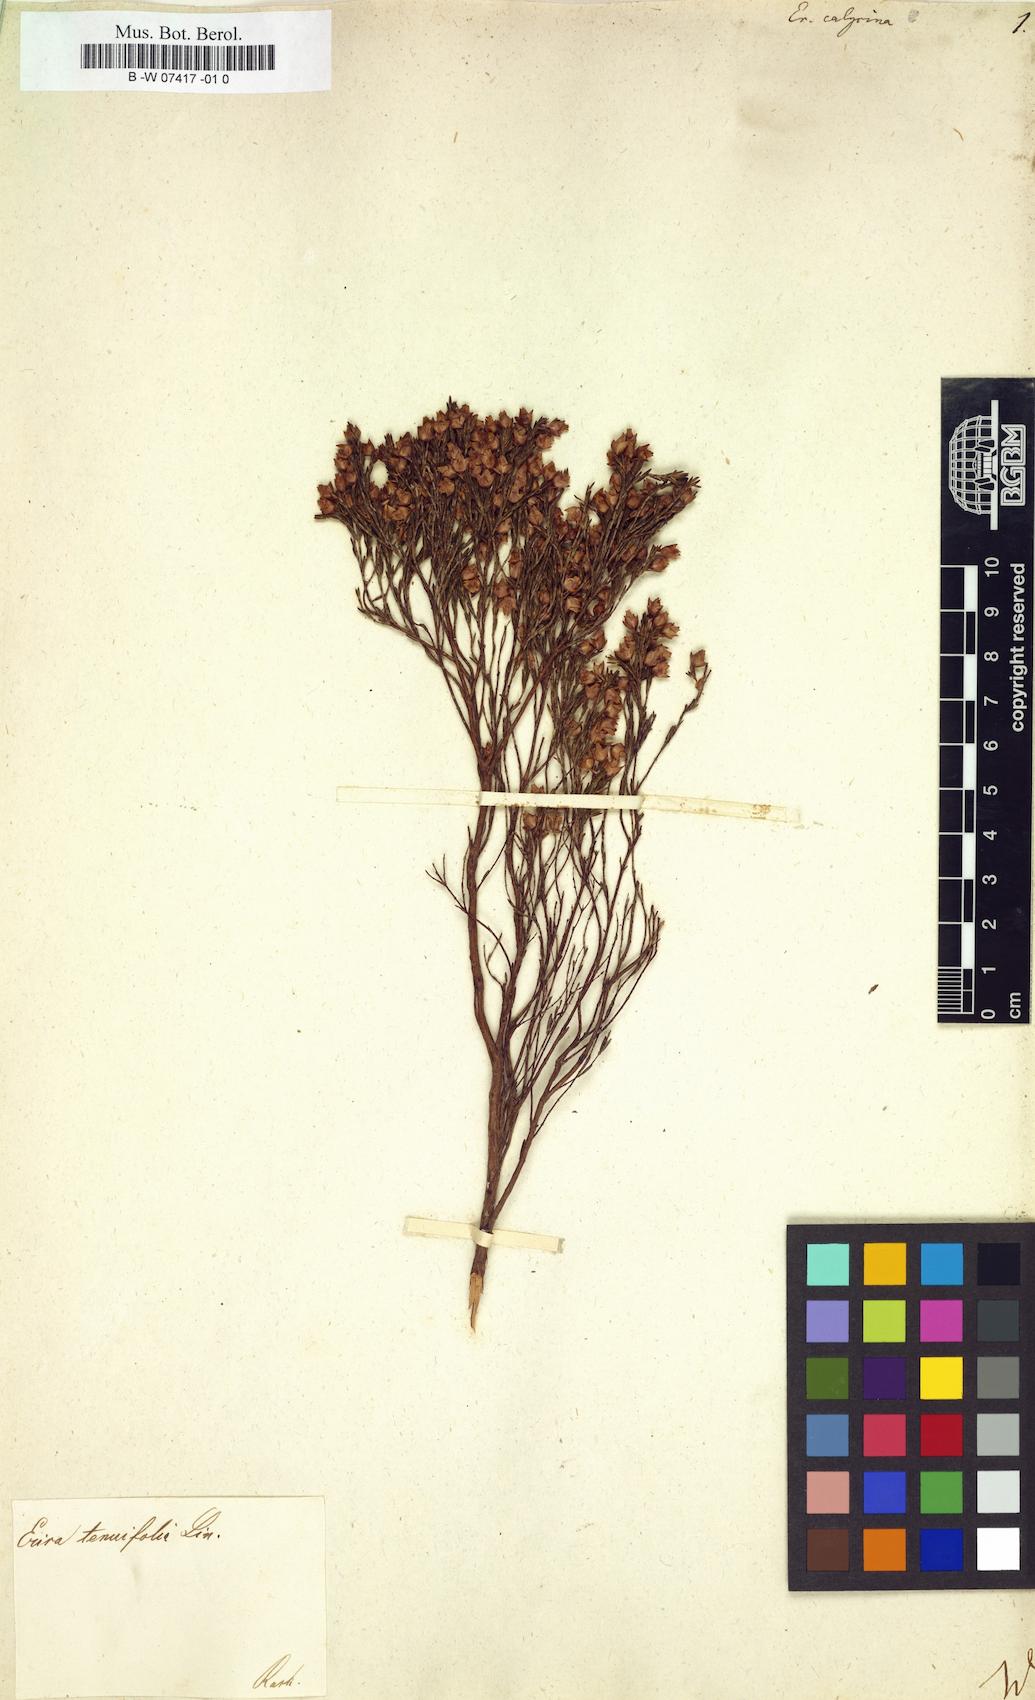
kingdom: Plantae
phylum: Tracheophyta
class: Magnoliopsida
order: Ericales
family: Ericaceae
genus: Erica
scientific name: Erica corifolia
